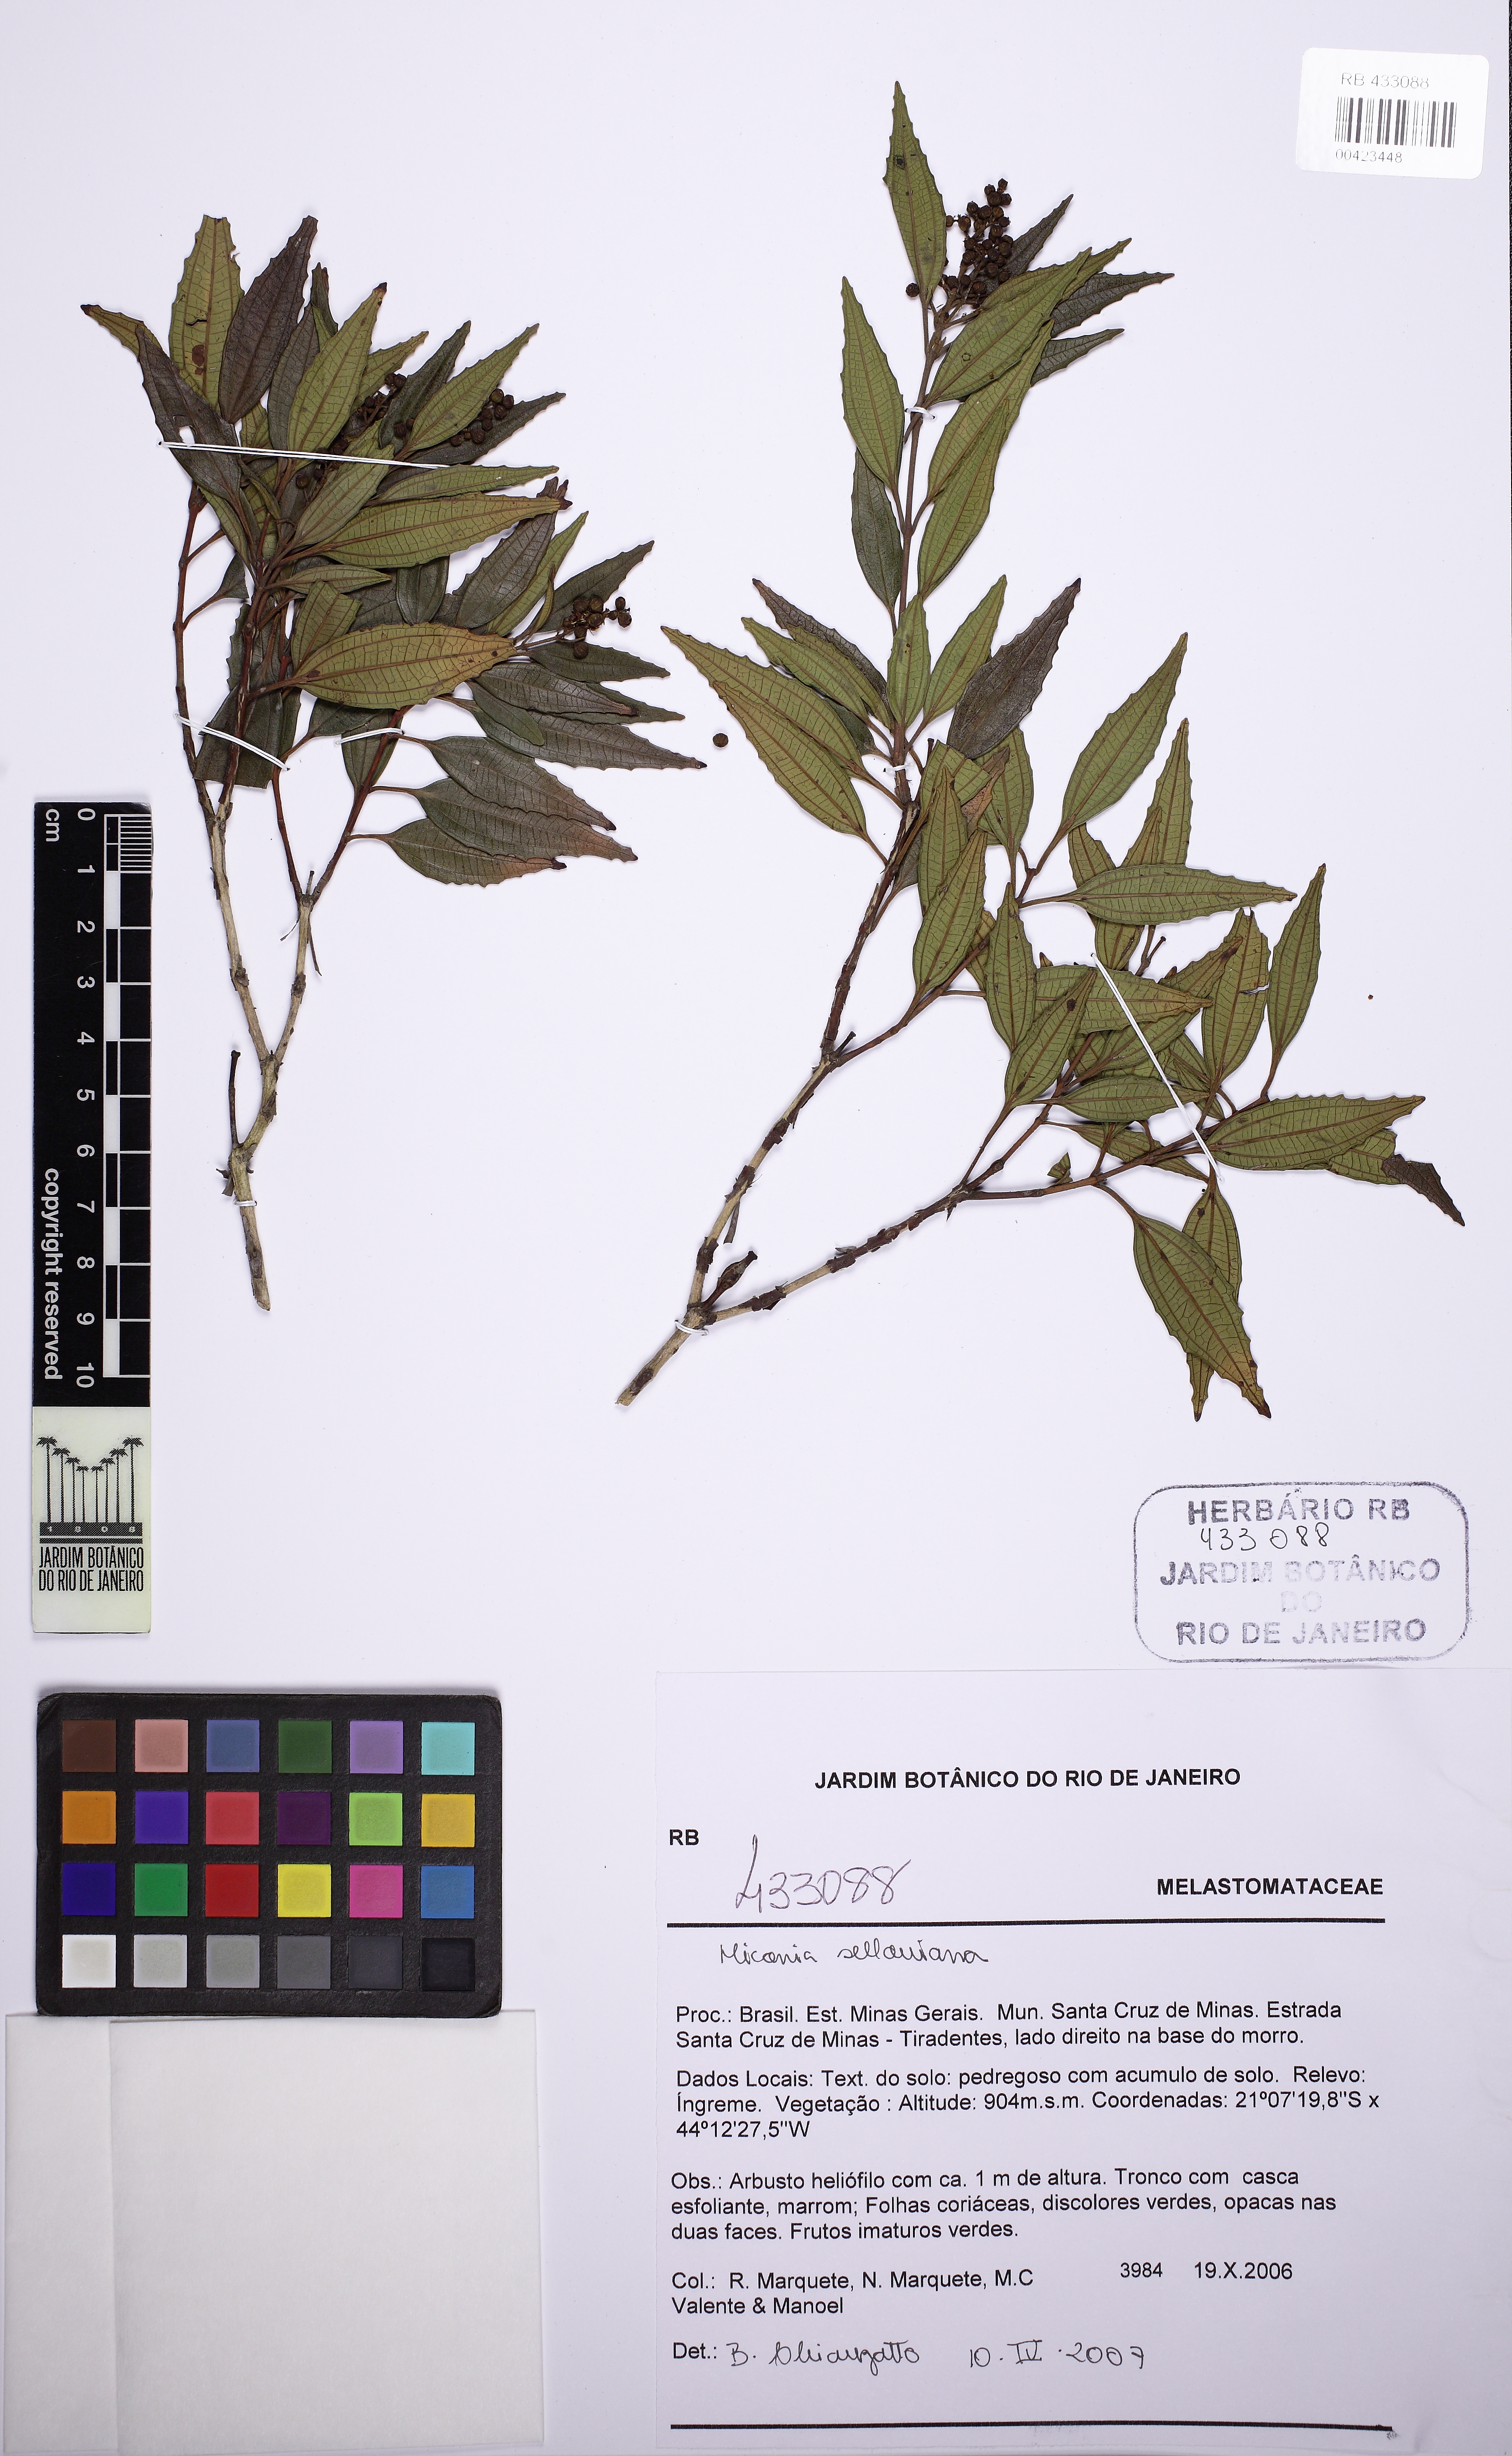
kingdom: Plantae
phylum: Tracheophyta
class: Magnoliopsida
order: Myrtales
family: Melastomataceae
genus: Miconia
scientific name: Miconia sellowiana
